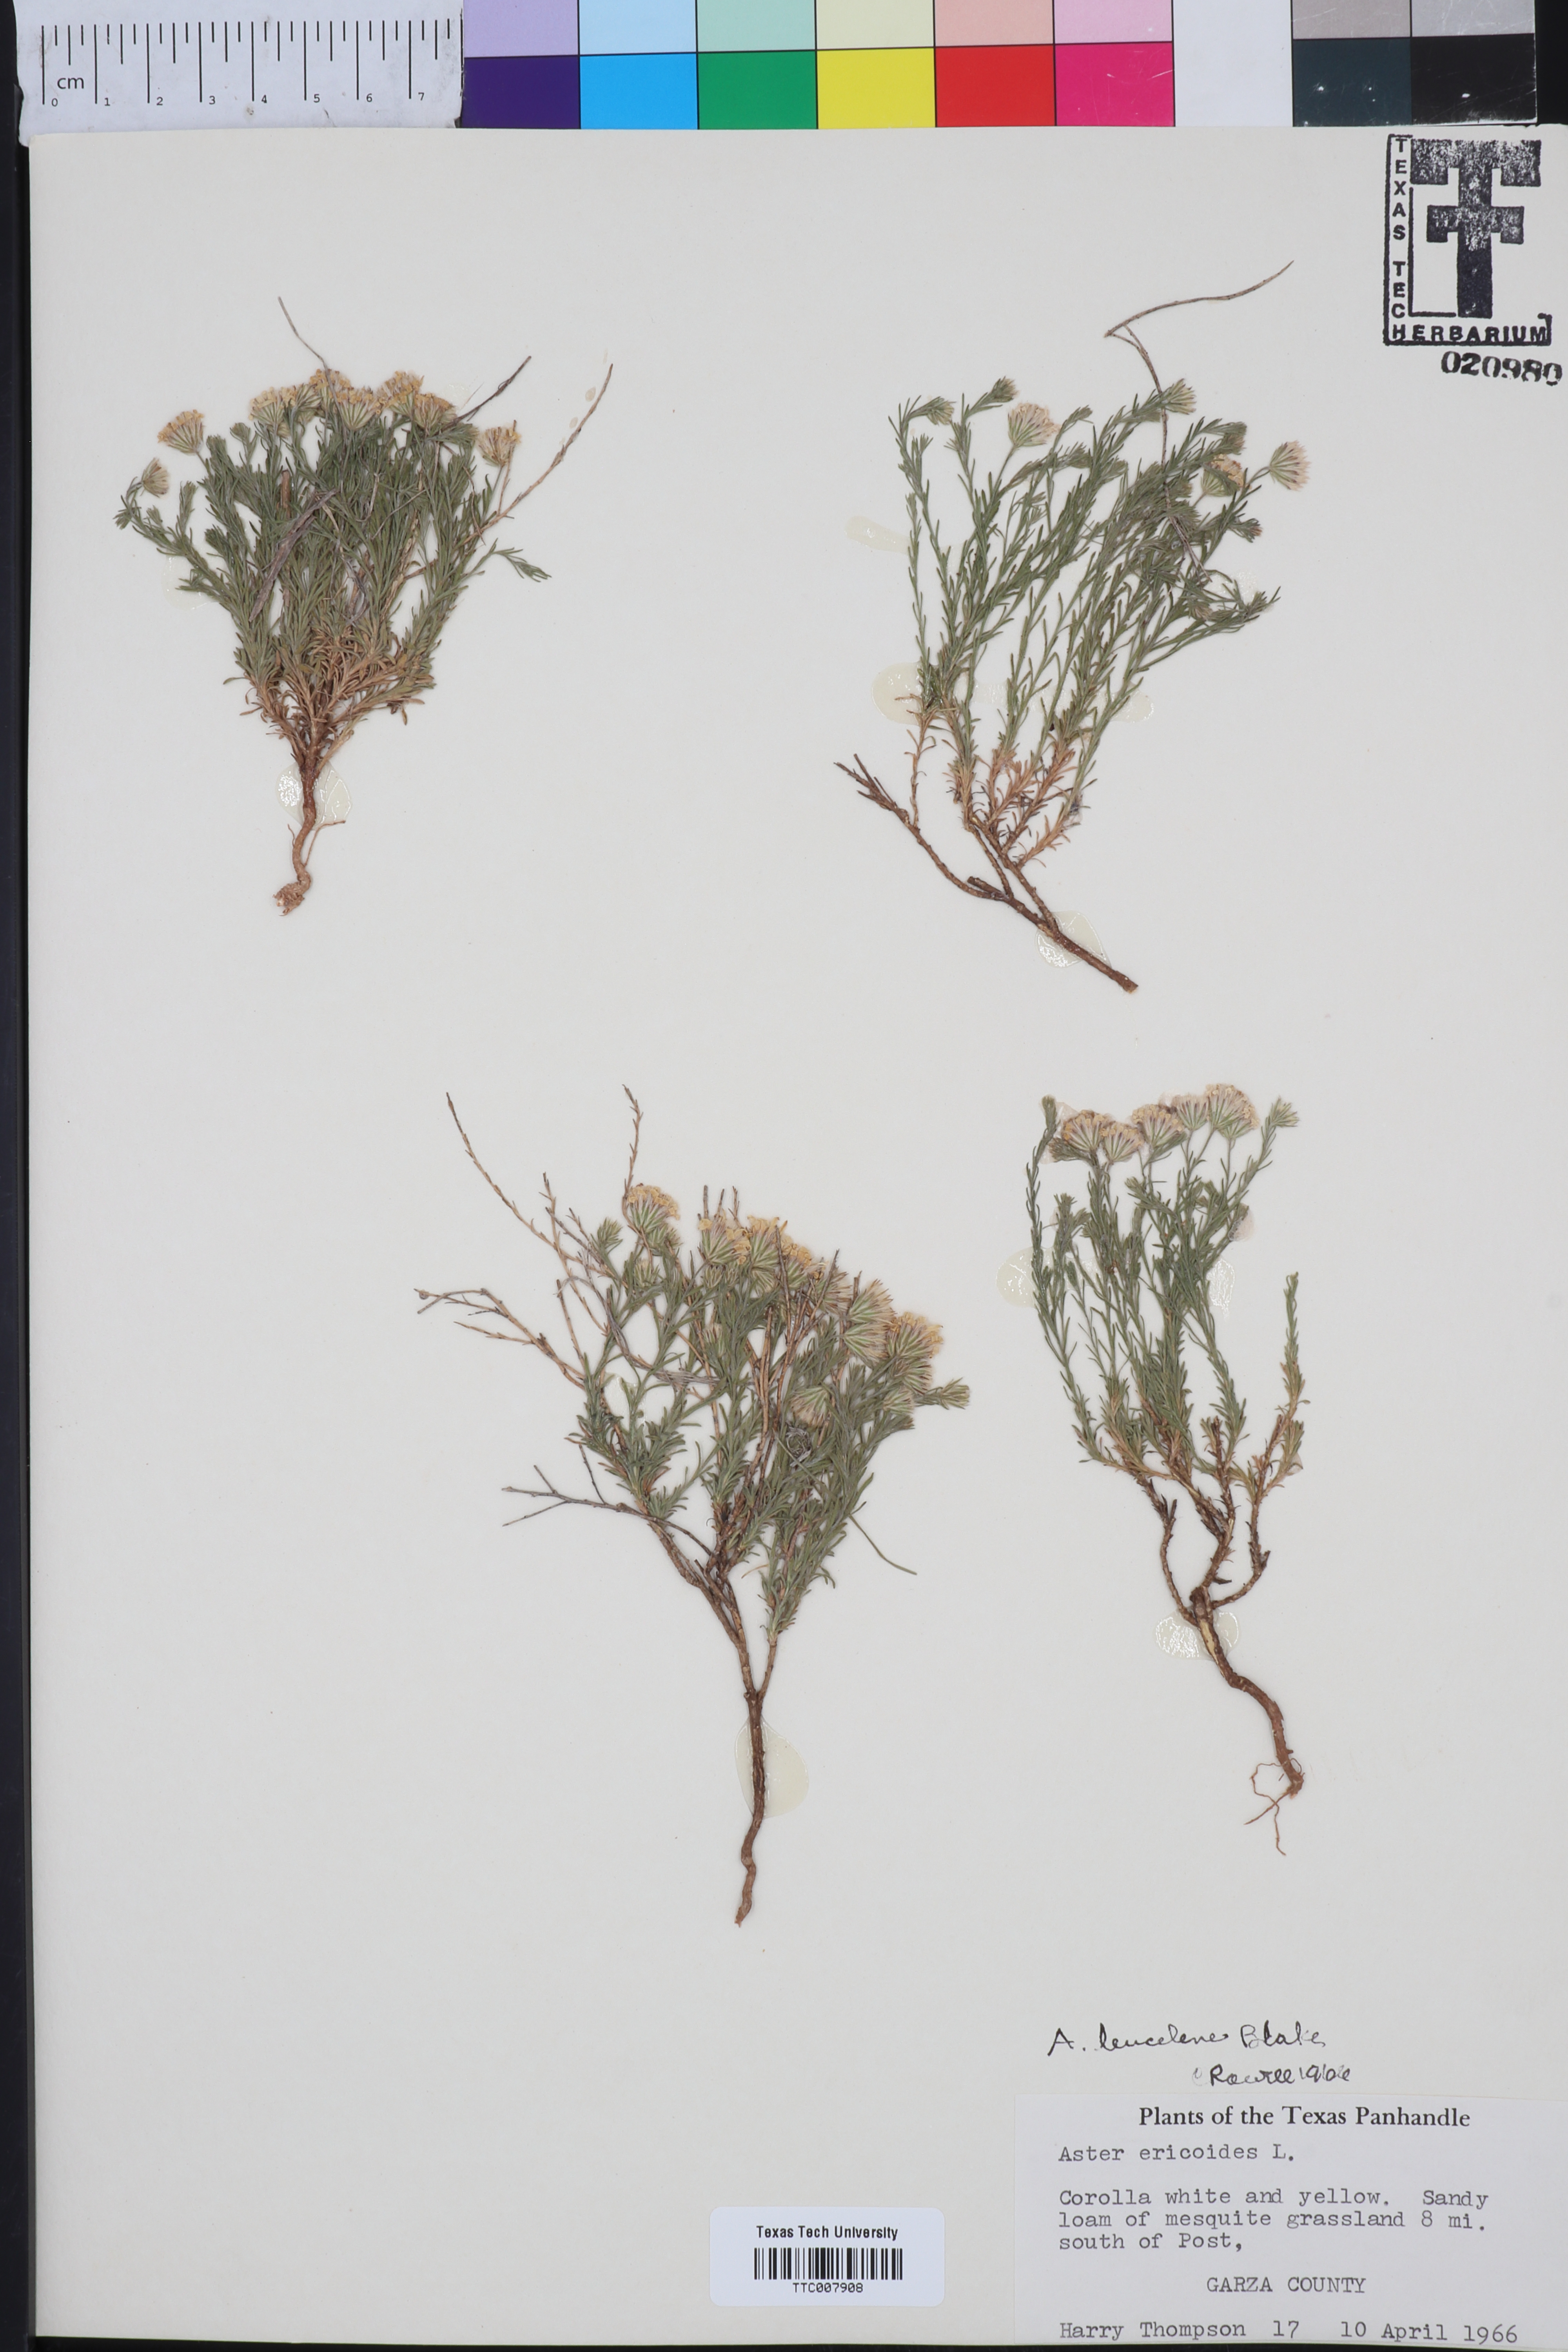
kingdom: Plantae
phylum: Tracheophyta
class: Magnoliopsida
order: Asterales
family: Asteraceae
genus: Chaetopappa
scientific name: Chaetopappa ericoides
